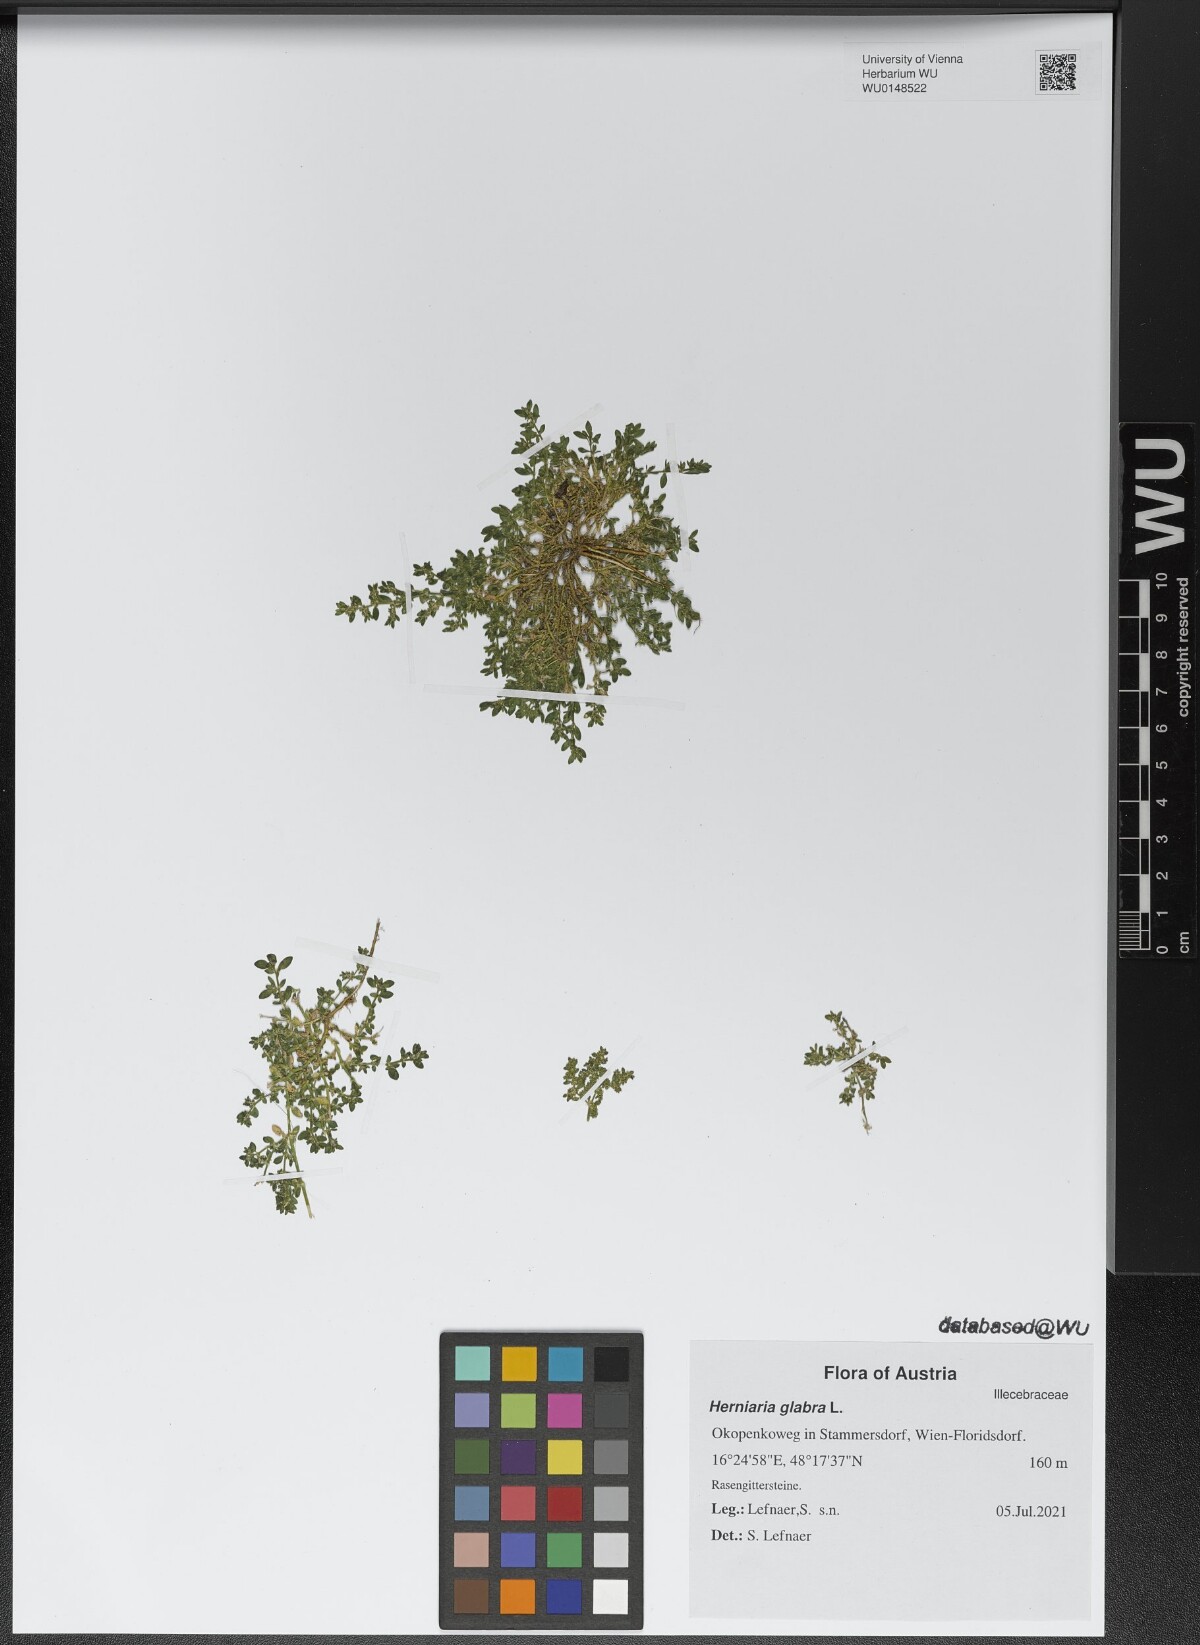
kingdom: Plantae
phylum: Tracheophyta
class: Magnoliopsida
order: Caryophyllales
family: Caryophyllaceae
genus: Herniaria
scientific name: Herniaria glabra
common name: Smooth rupturewort
